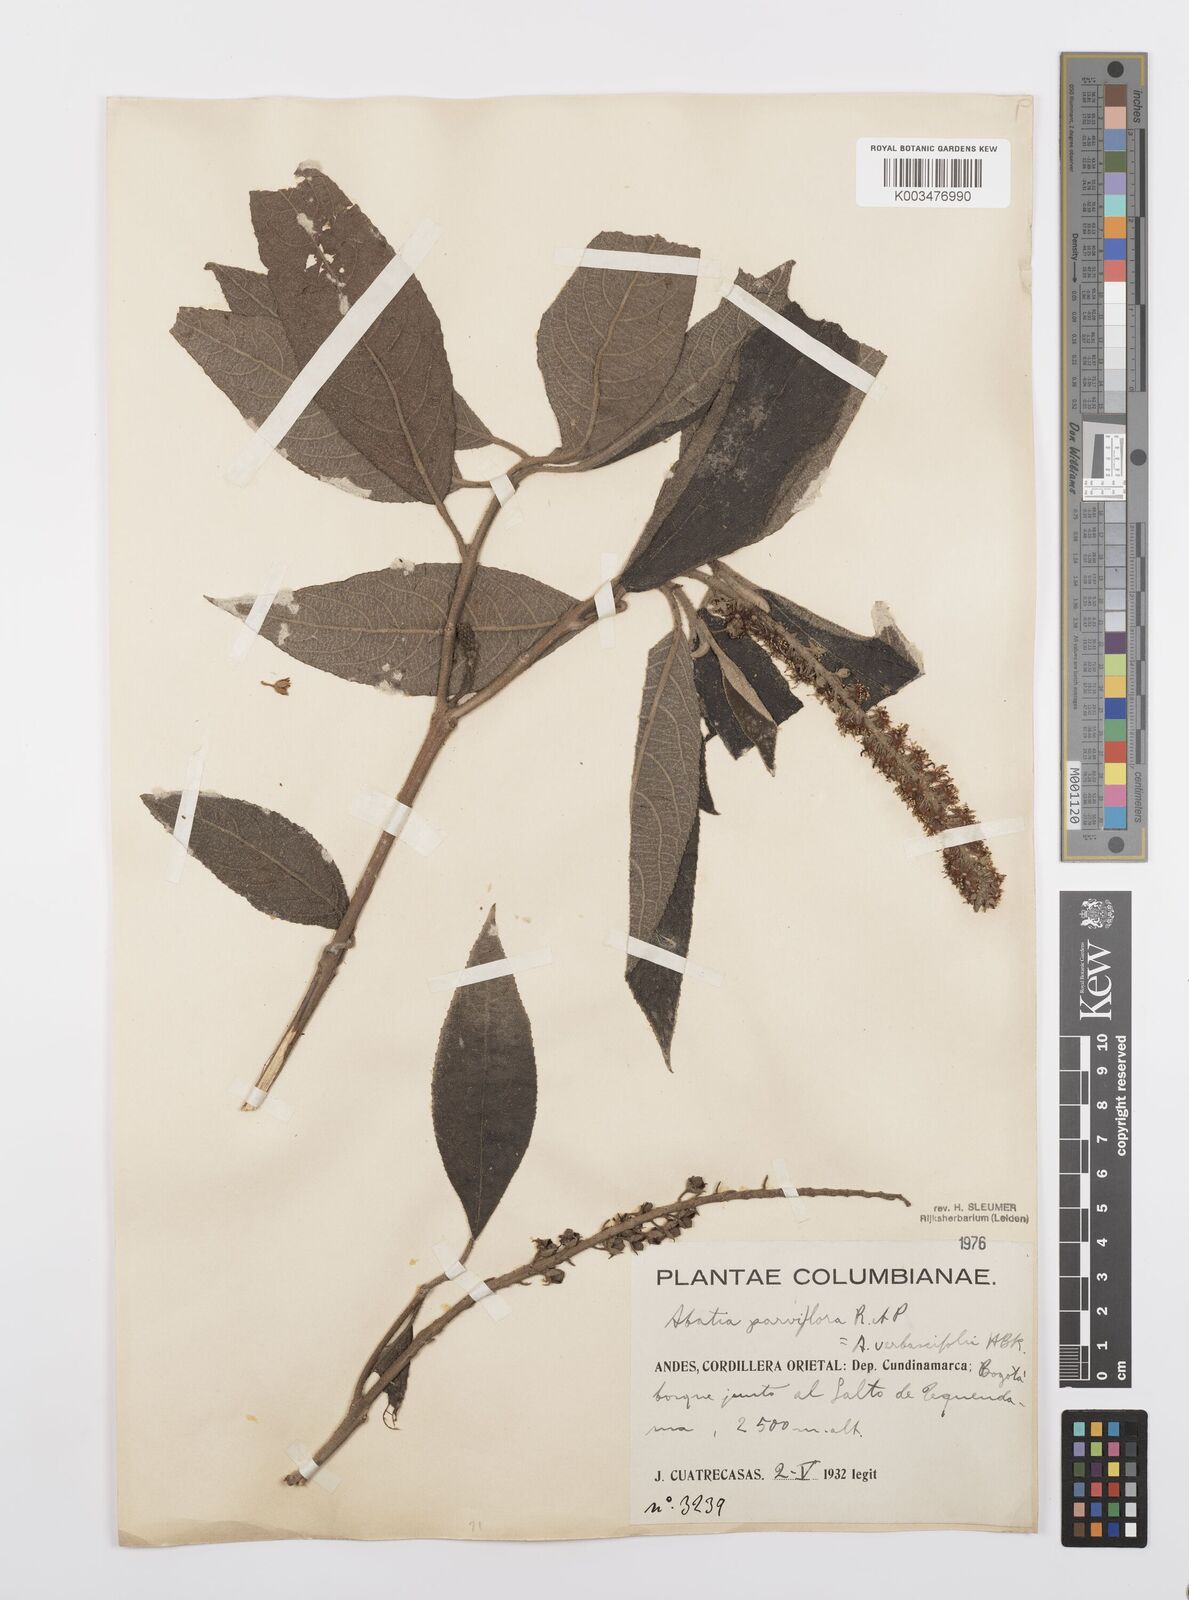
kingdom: Plantae
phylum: Tracheophyta
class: Magnoliopsida
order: Malpighiales
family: Salicaceae
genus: Abatia
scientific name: Abatia parviflora
